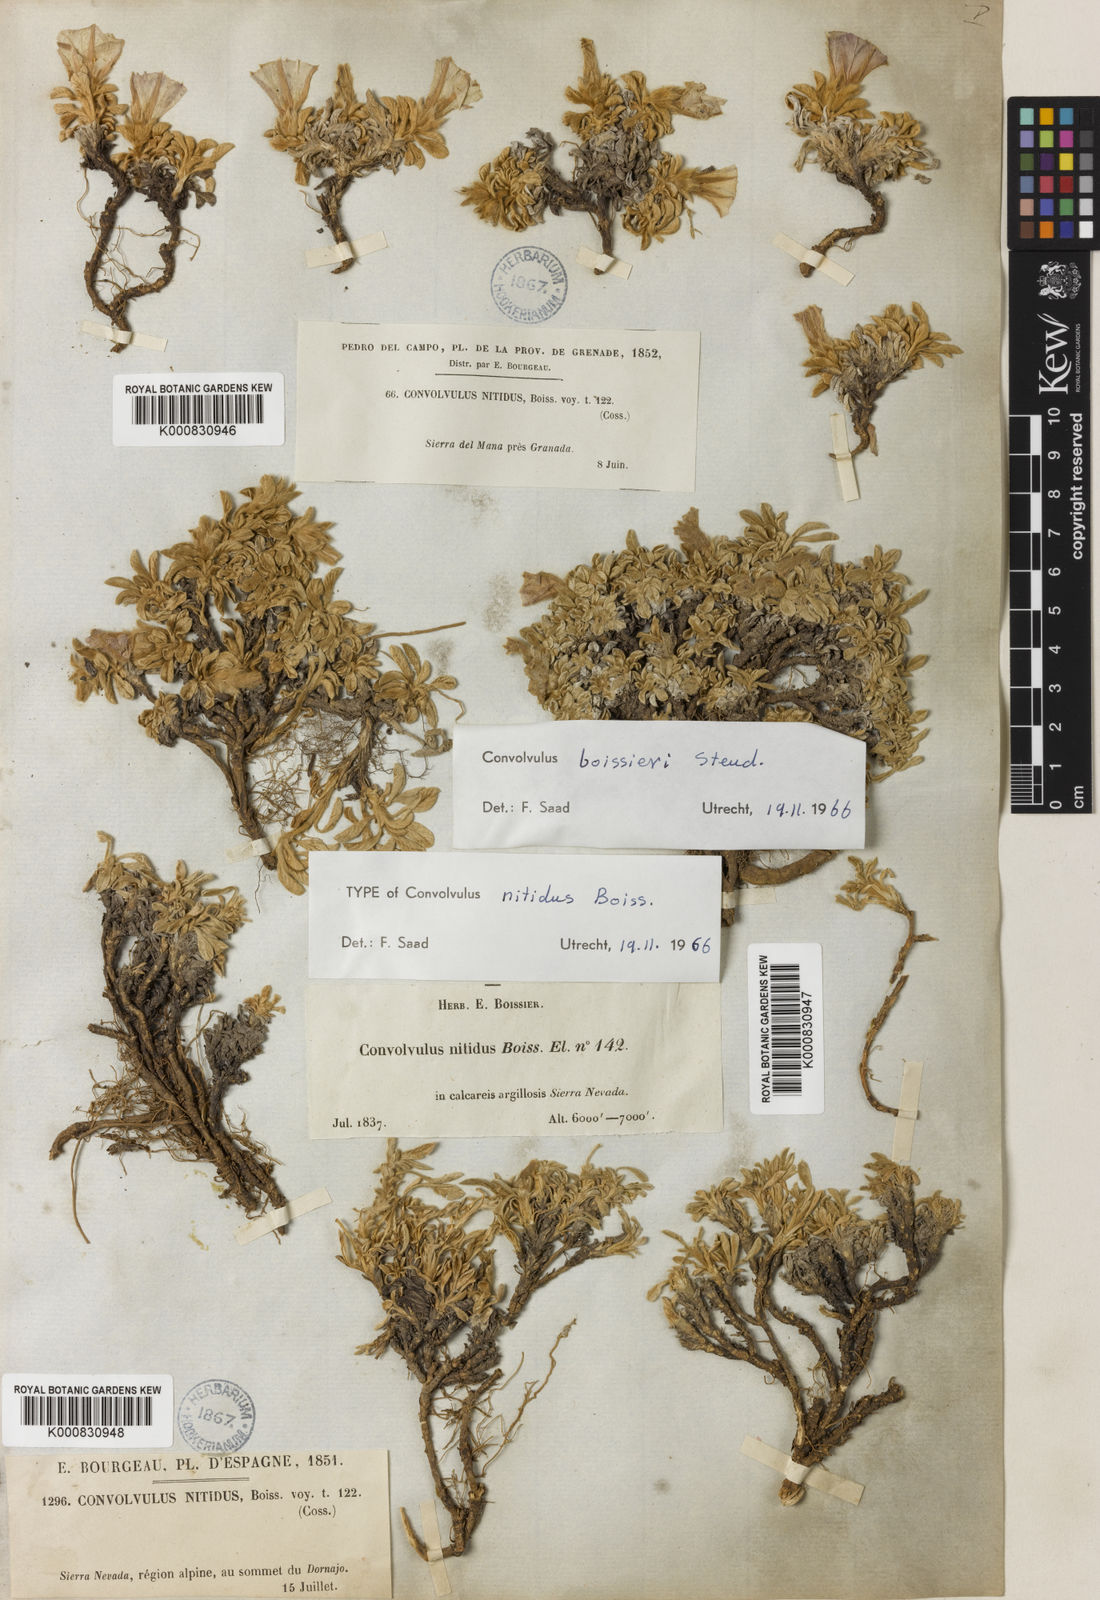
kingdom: Plantae
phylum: Tracheophyta
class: Magnoliopsida
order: Solanales
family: Convolvulaceae
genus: Convolvulus
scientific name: Convolvulus boissieri
